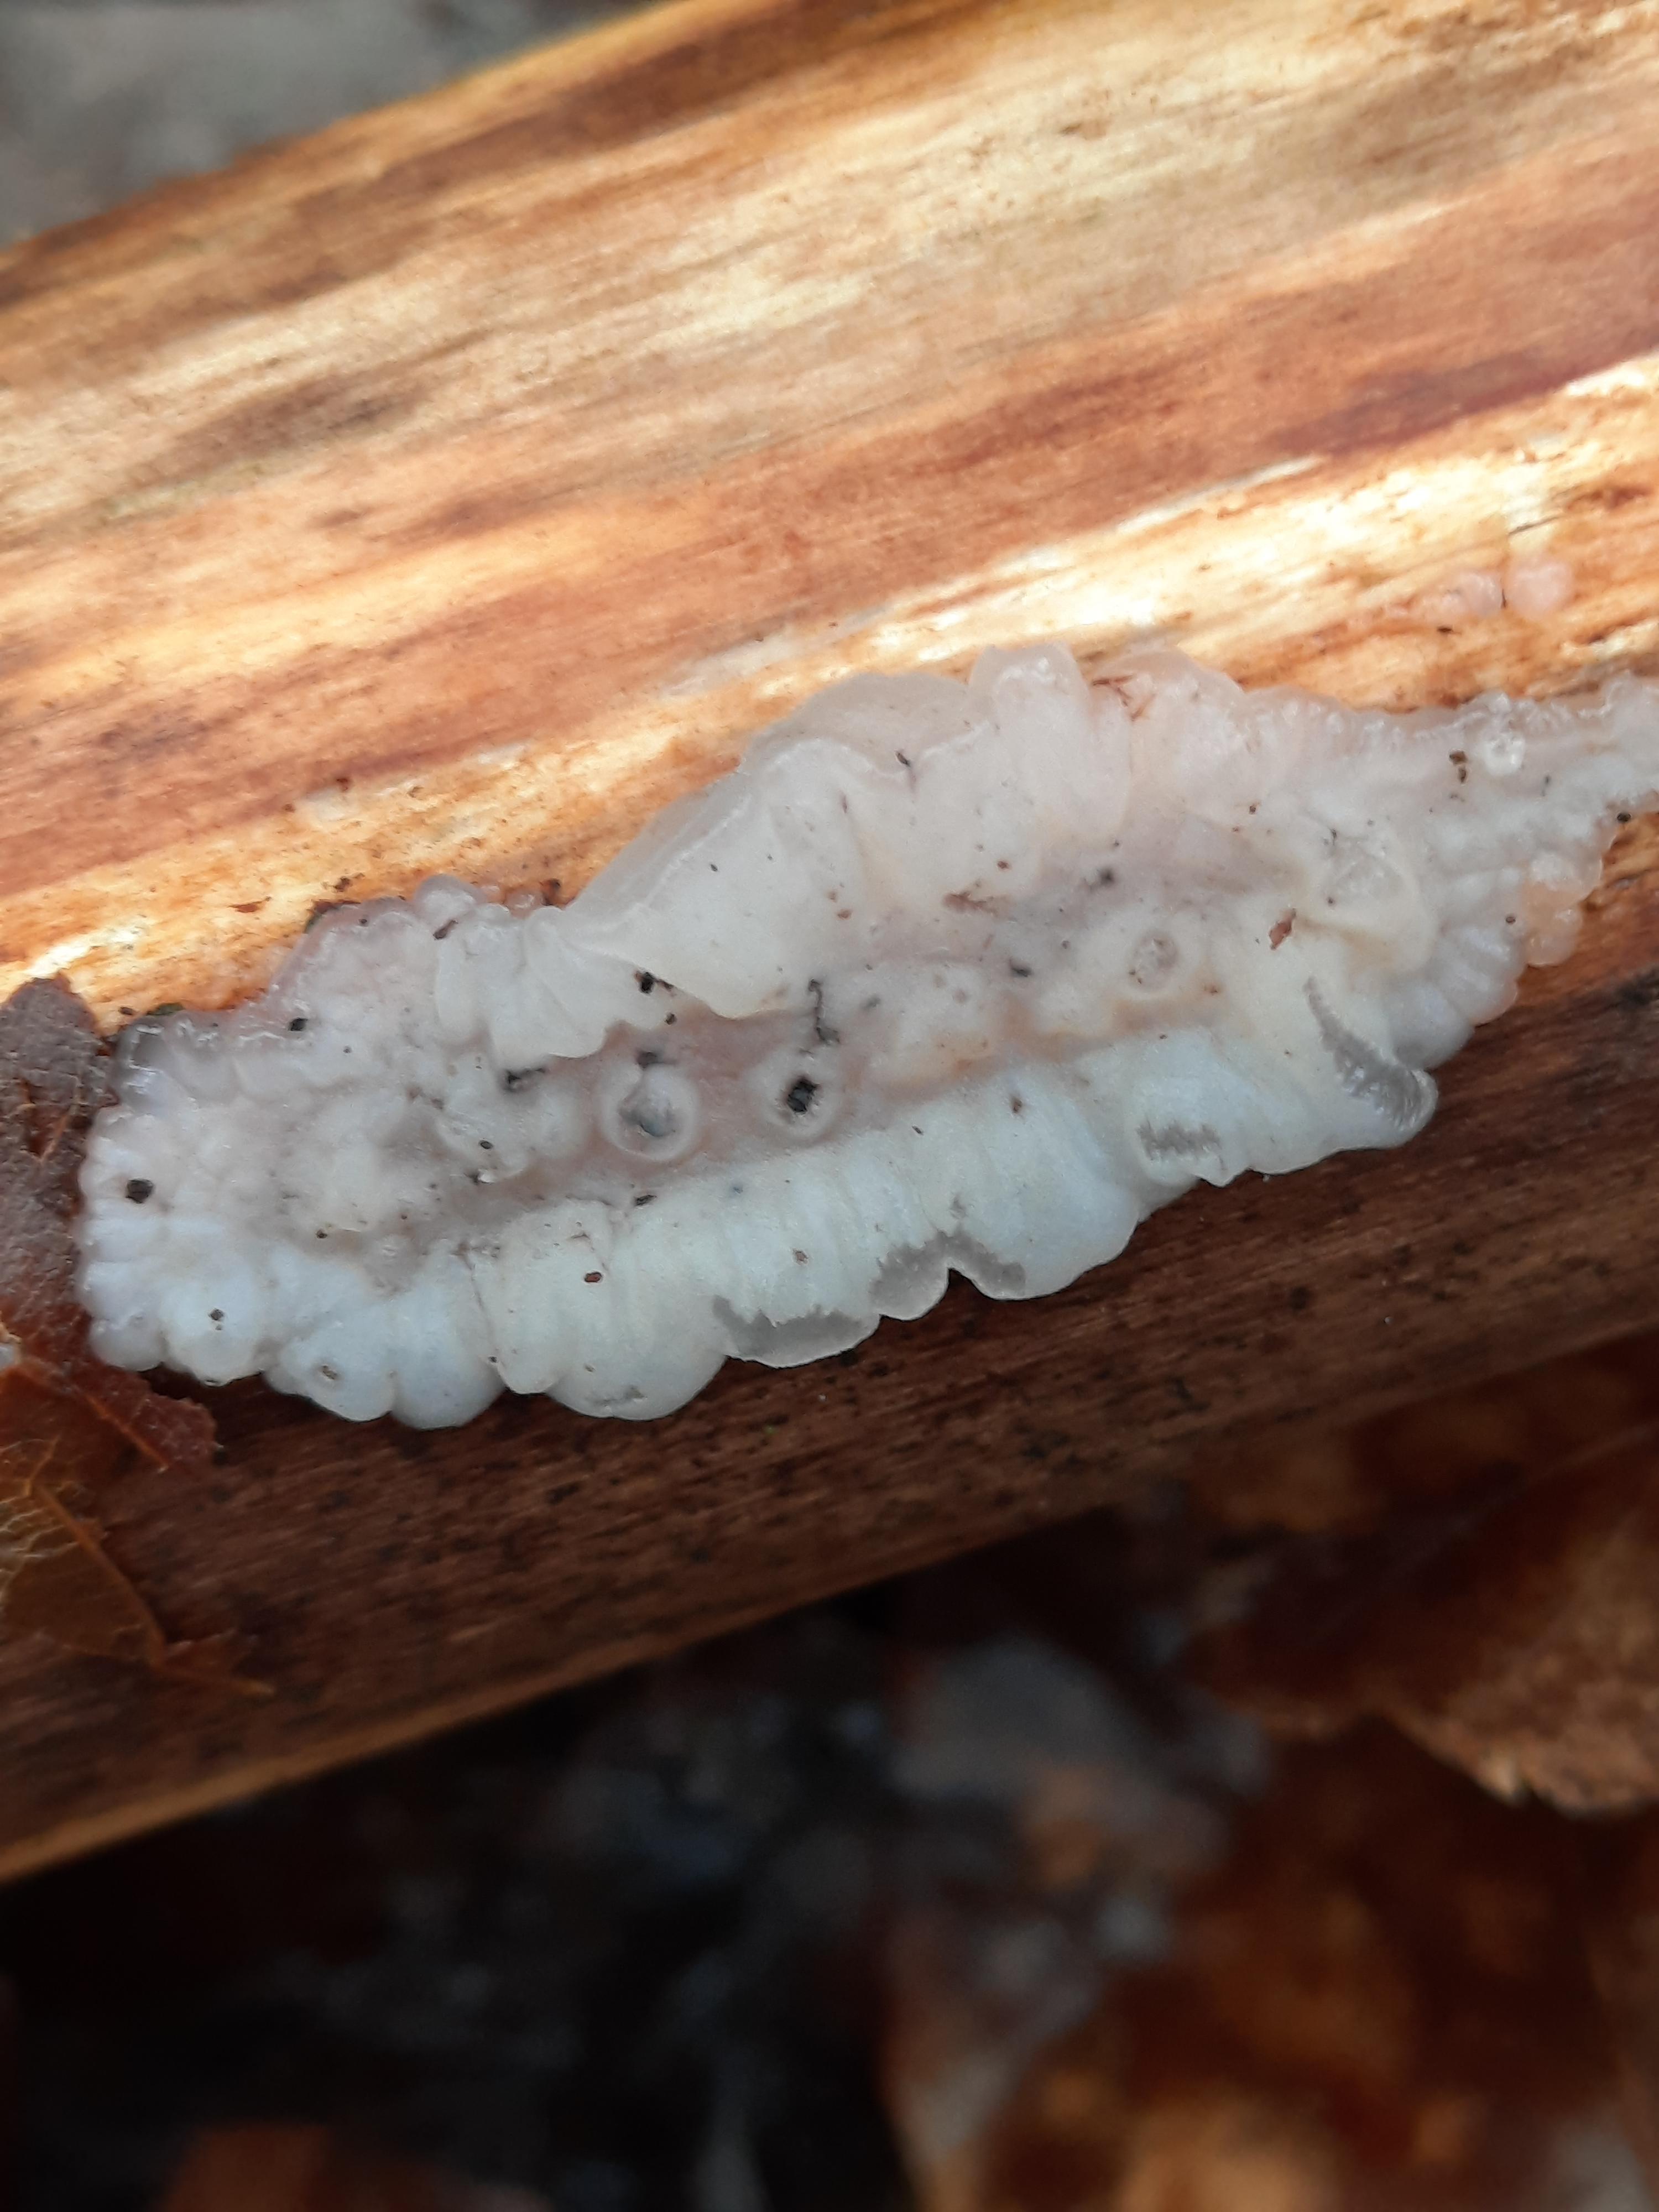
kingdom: Fungi
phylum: Basidiomycota
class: Agaricomycetes
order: Auriculariales
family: Auriculariaceae
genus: Exidia
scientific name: Exidia thuretiana
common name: hvidlig bævretop
